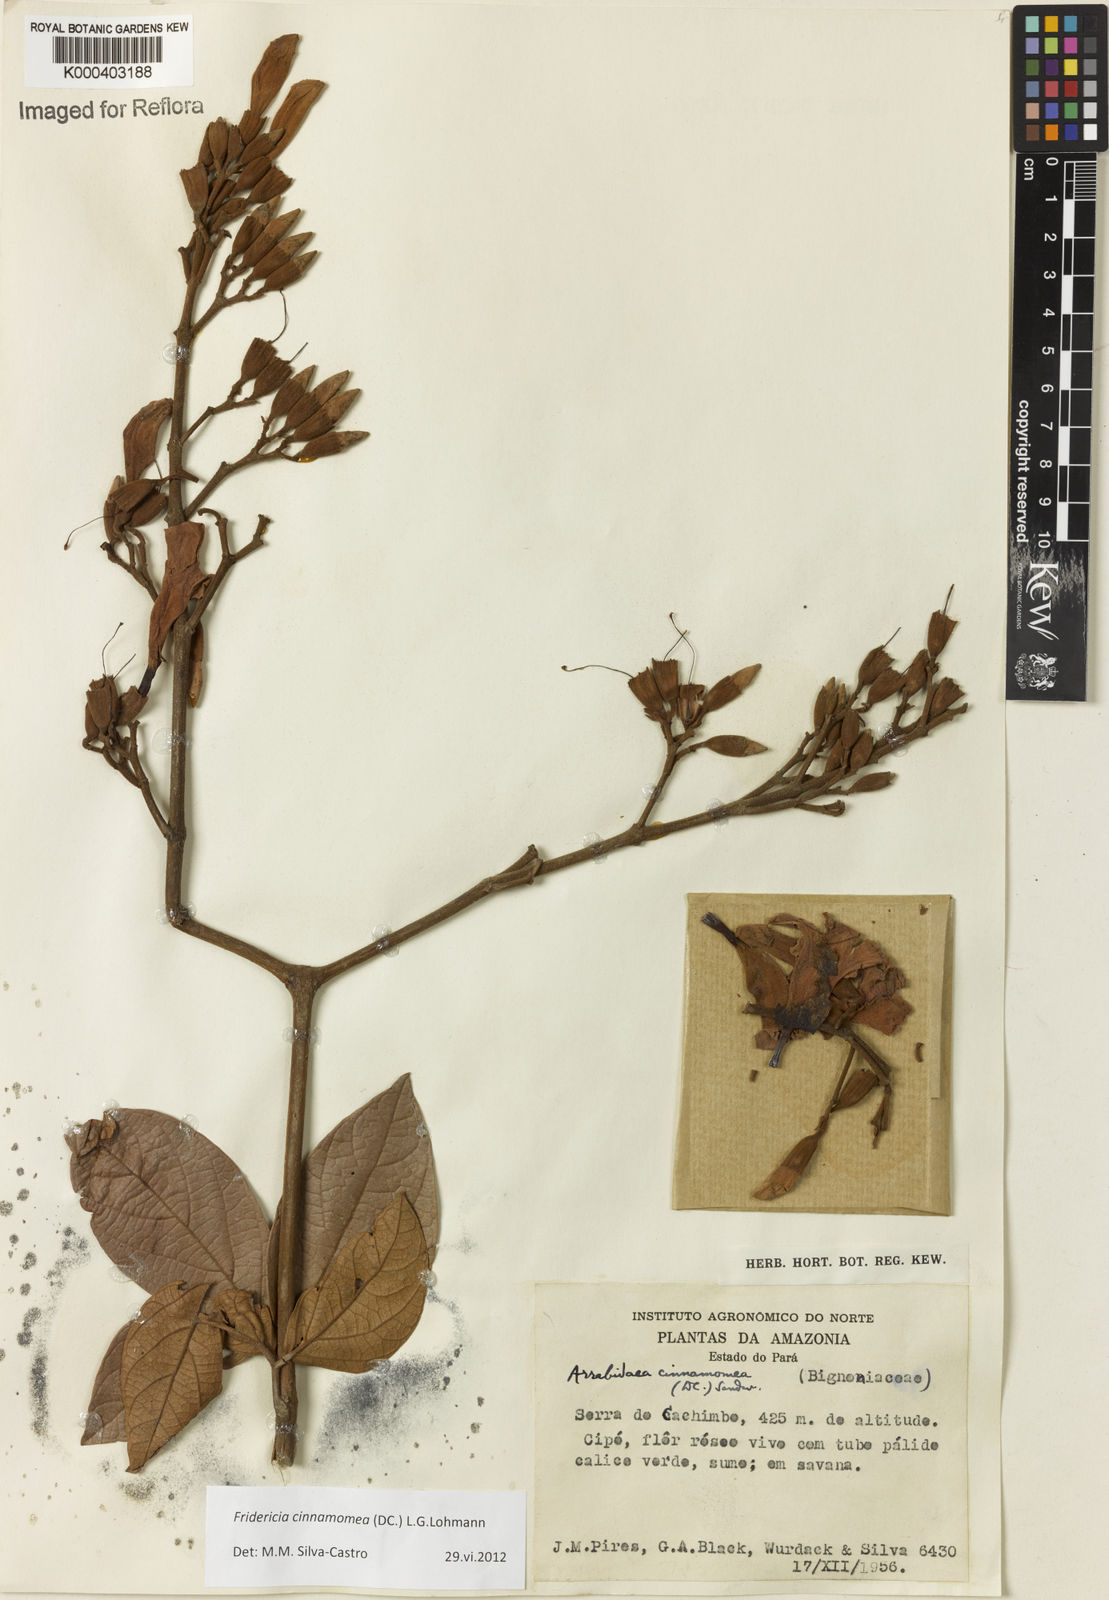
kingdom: Plantae
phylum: Tracheophyta
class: Magnoliopsida
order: Lamiales
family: Bignoniaceae
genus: Fridericia
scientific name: Fridericia cinnamomea
